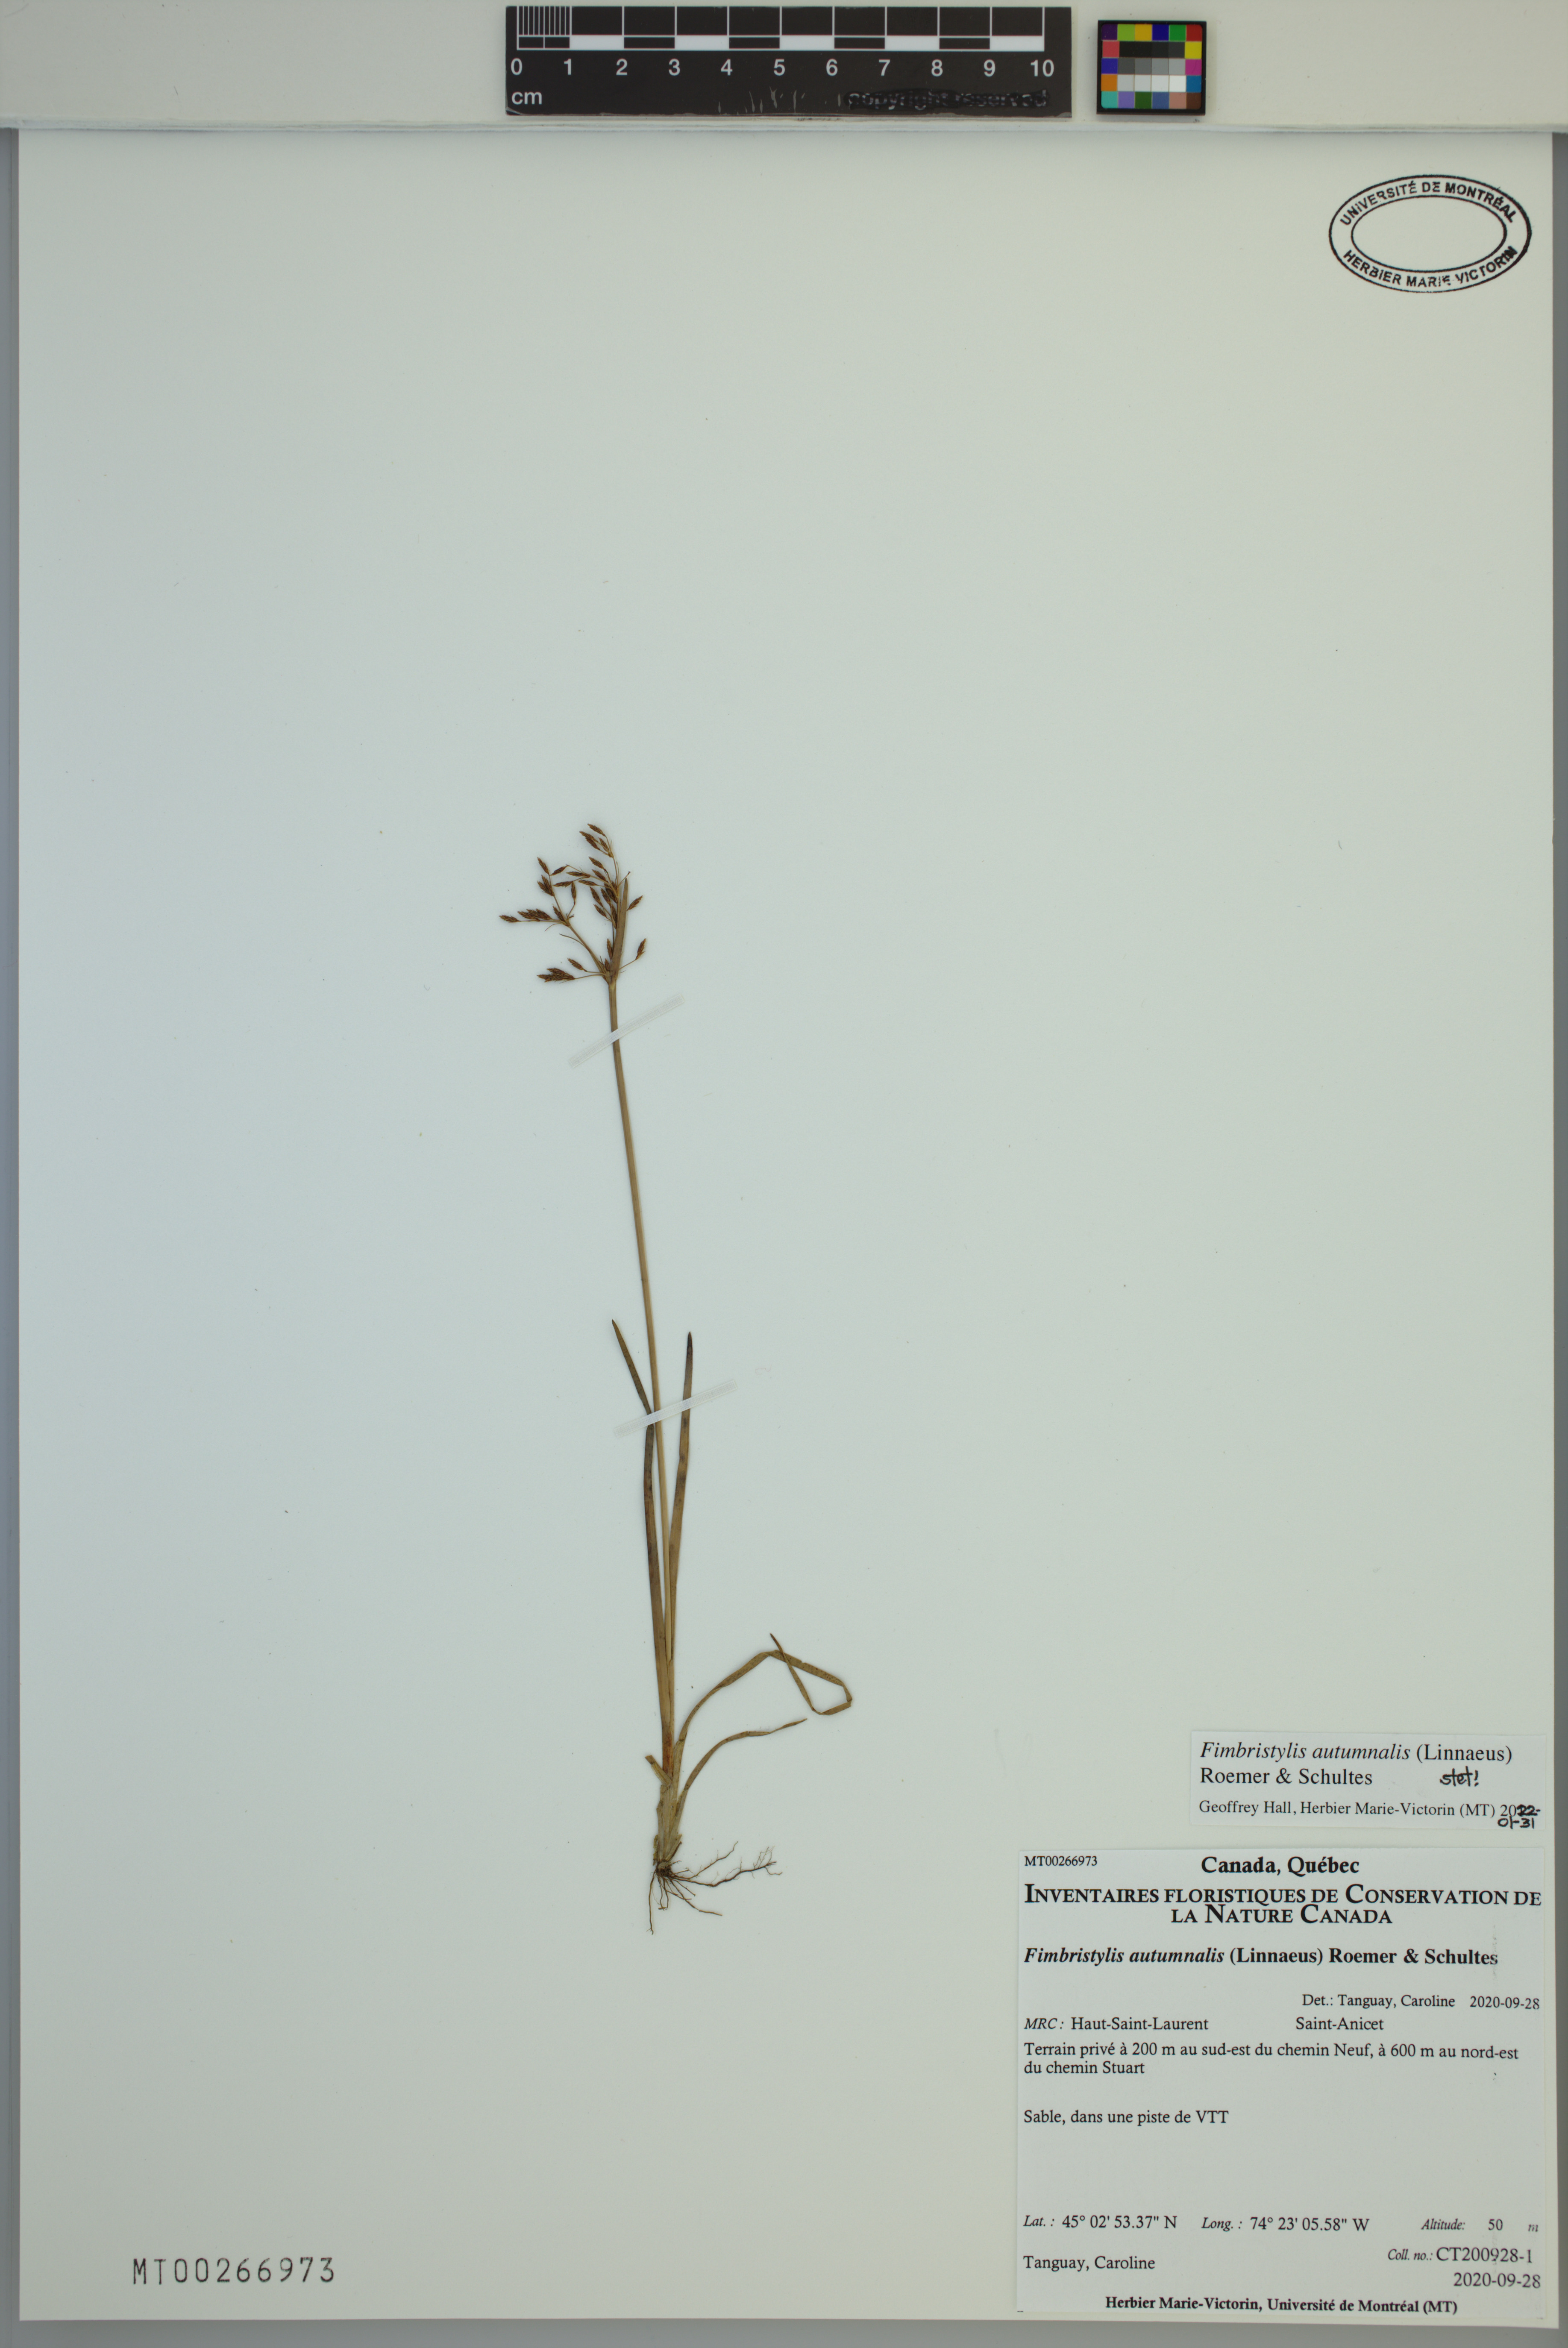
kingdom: Plantae
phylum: Tracheophyta
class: Liliopsida
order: Poales
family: Cyperaceae
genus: Fimbristylis
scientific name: Fimbristylis autumnalis
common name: Slender fimbristylis
